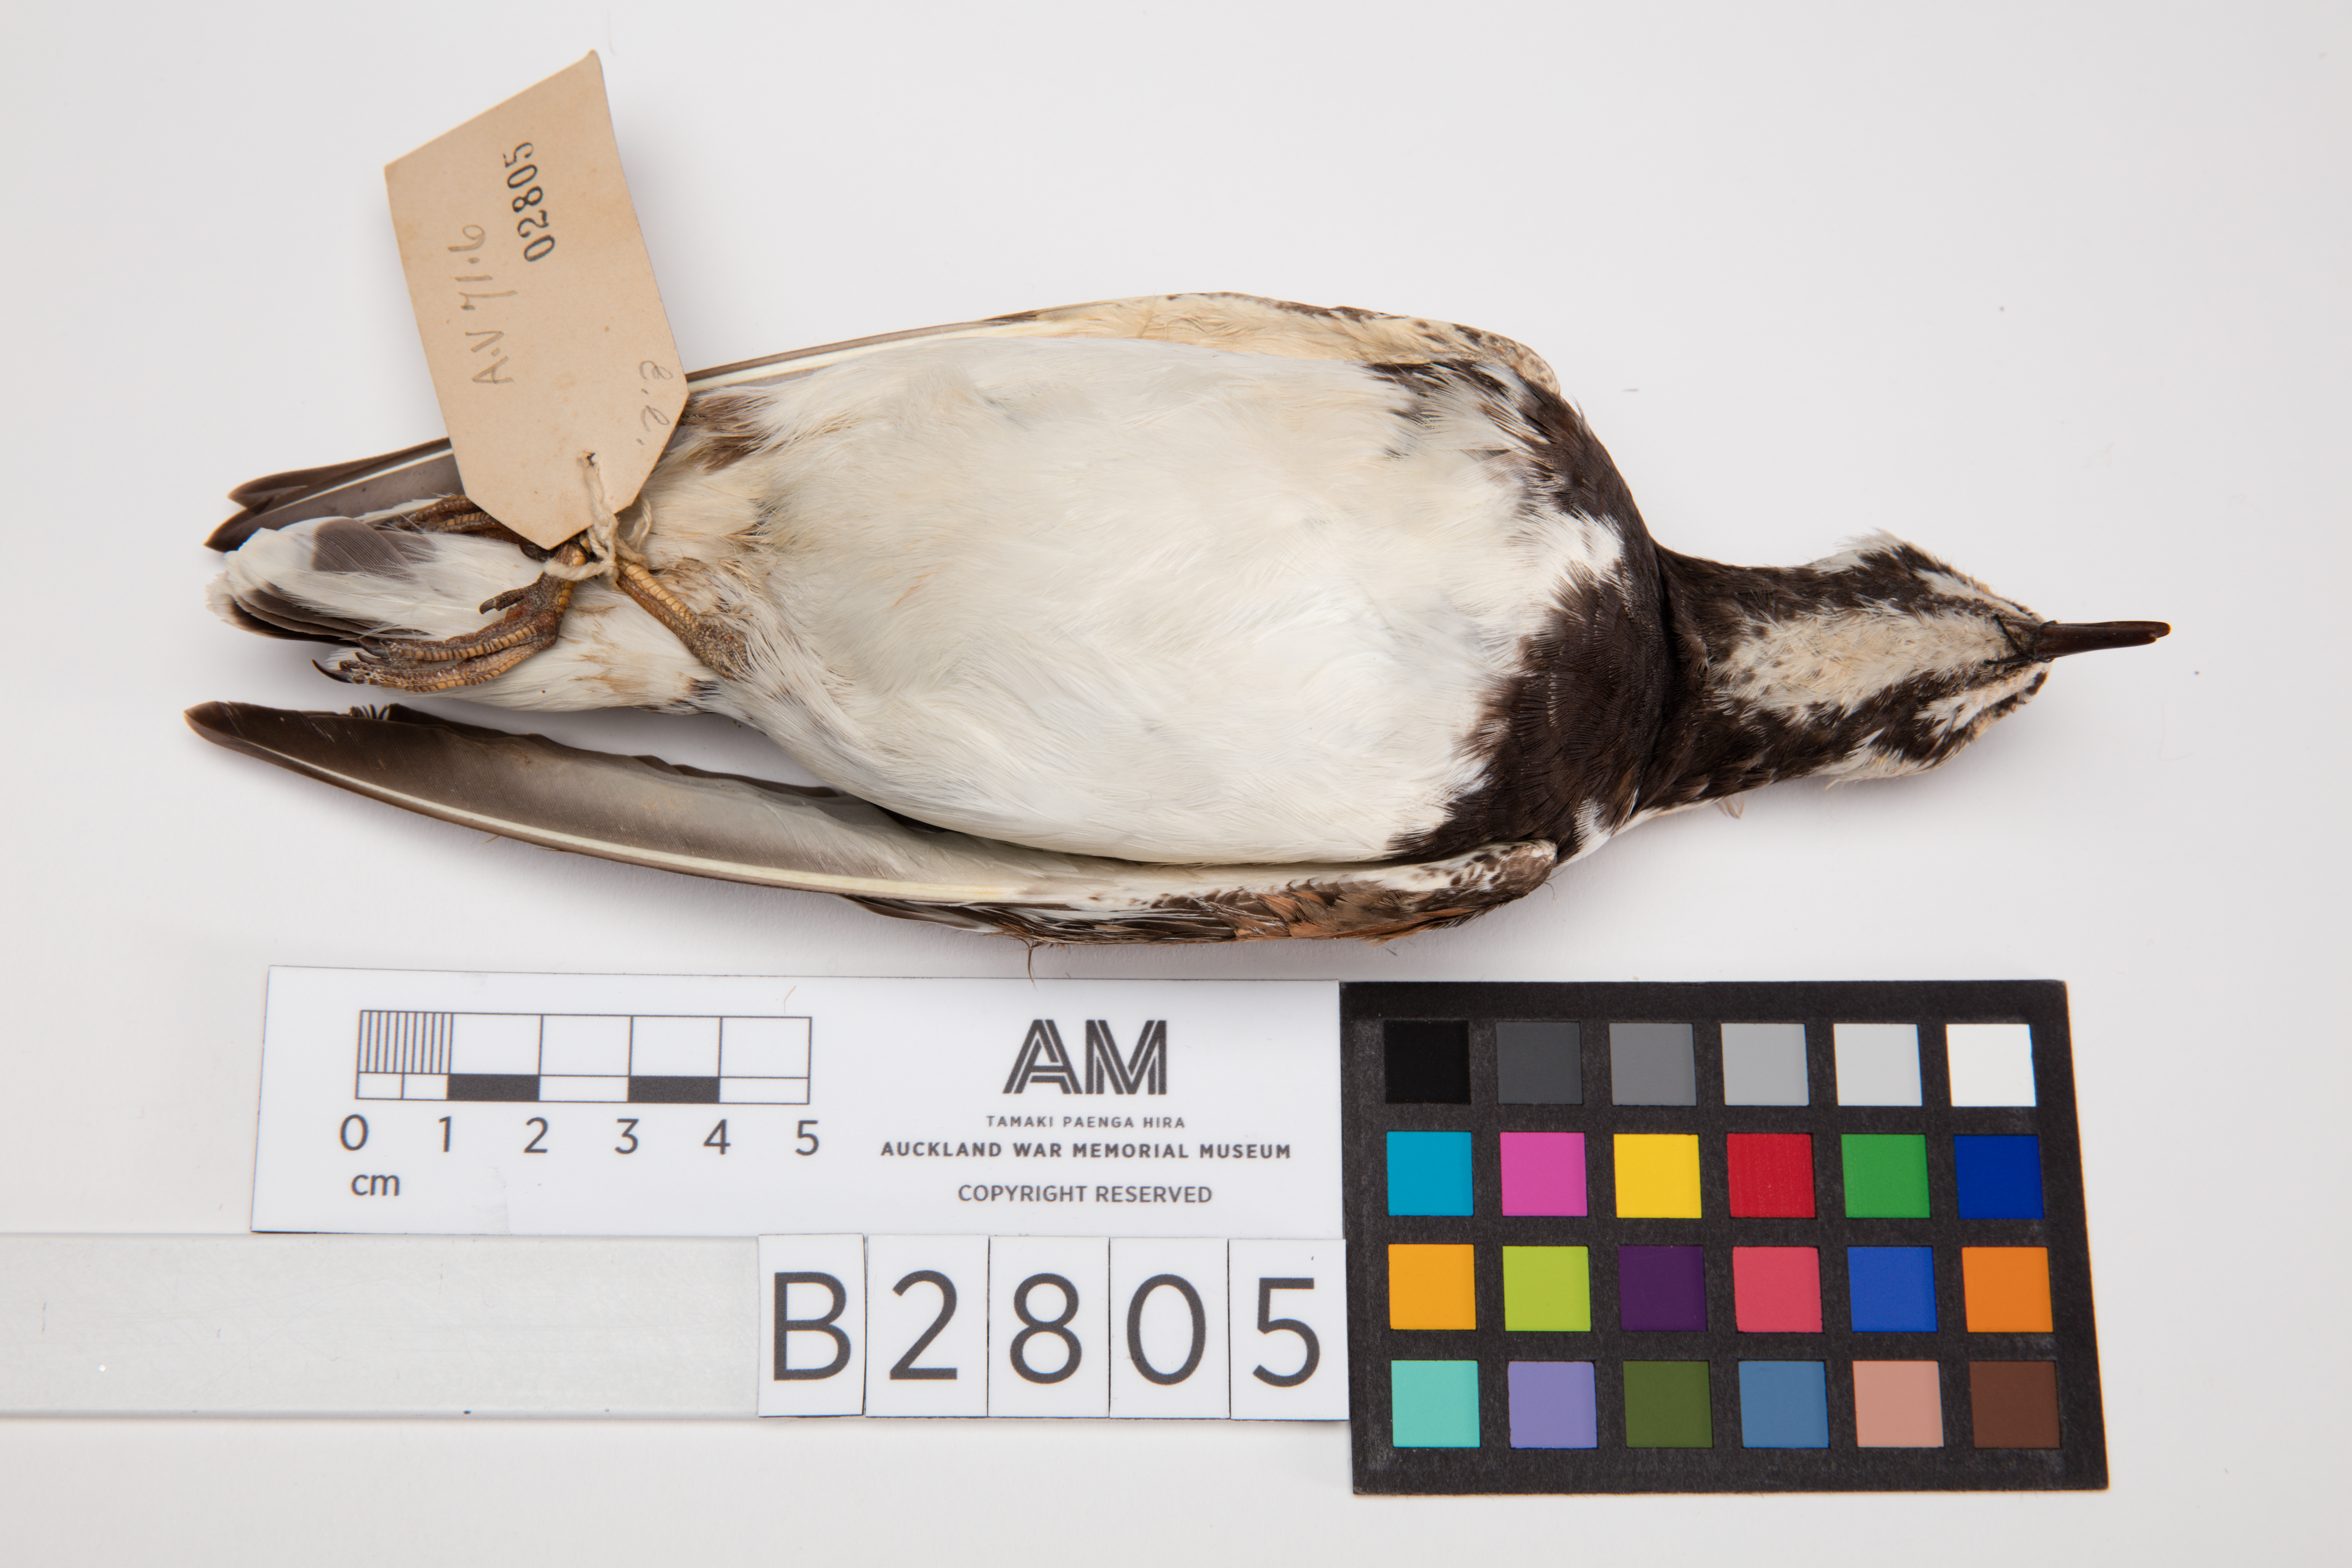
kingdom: Animalia
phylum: Chordata
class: Aves
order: Charadriiformes
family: Scolopacidae
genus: Arenaria
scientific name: Arenaria interpres
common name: Ruddy turnstone
